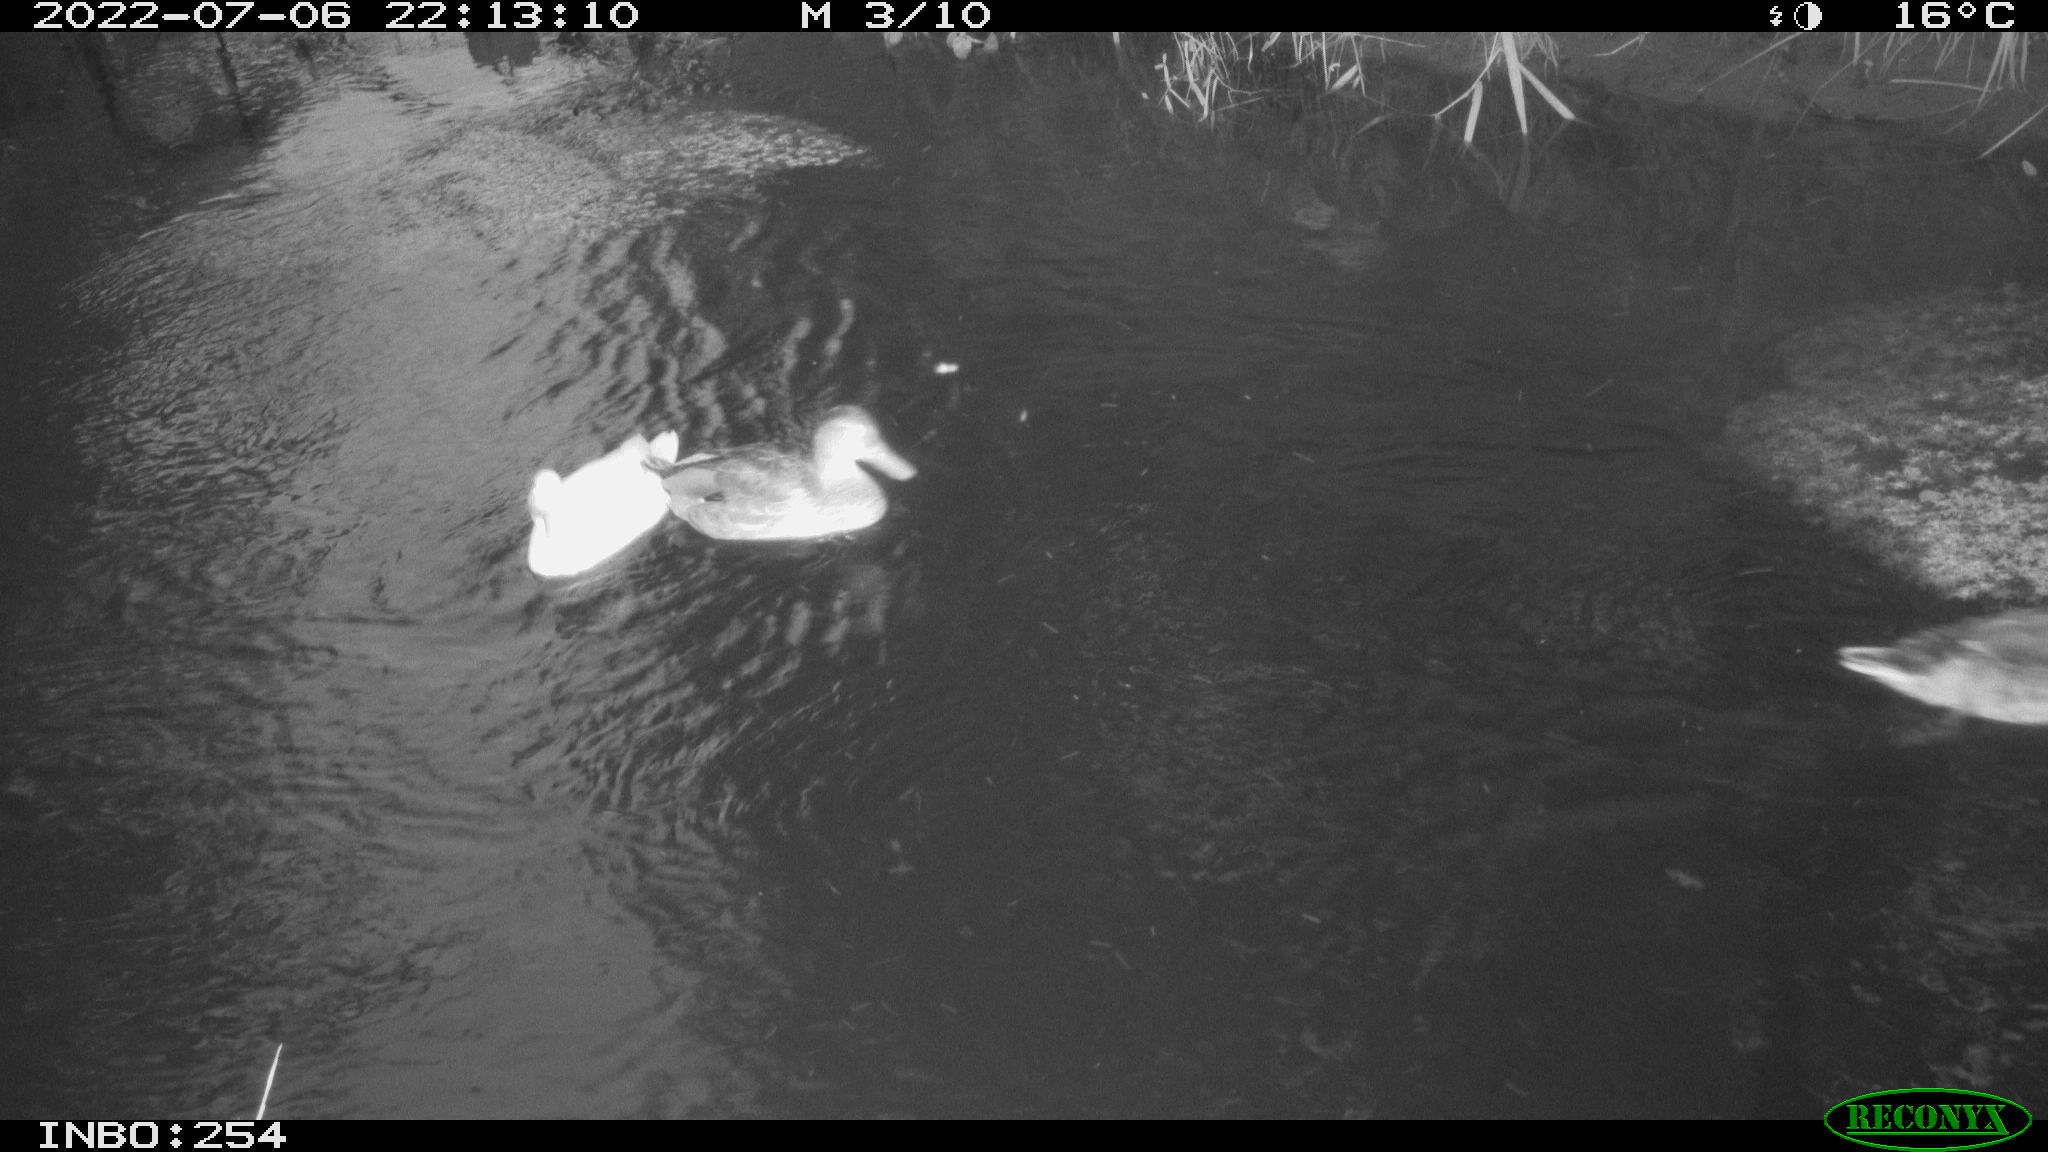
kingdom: Animalia
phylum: Chordata
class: Aves
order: Anseriformes
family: Anatidae
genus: Anas
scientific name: Anas platyrhynchos
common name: Mallard
